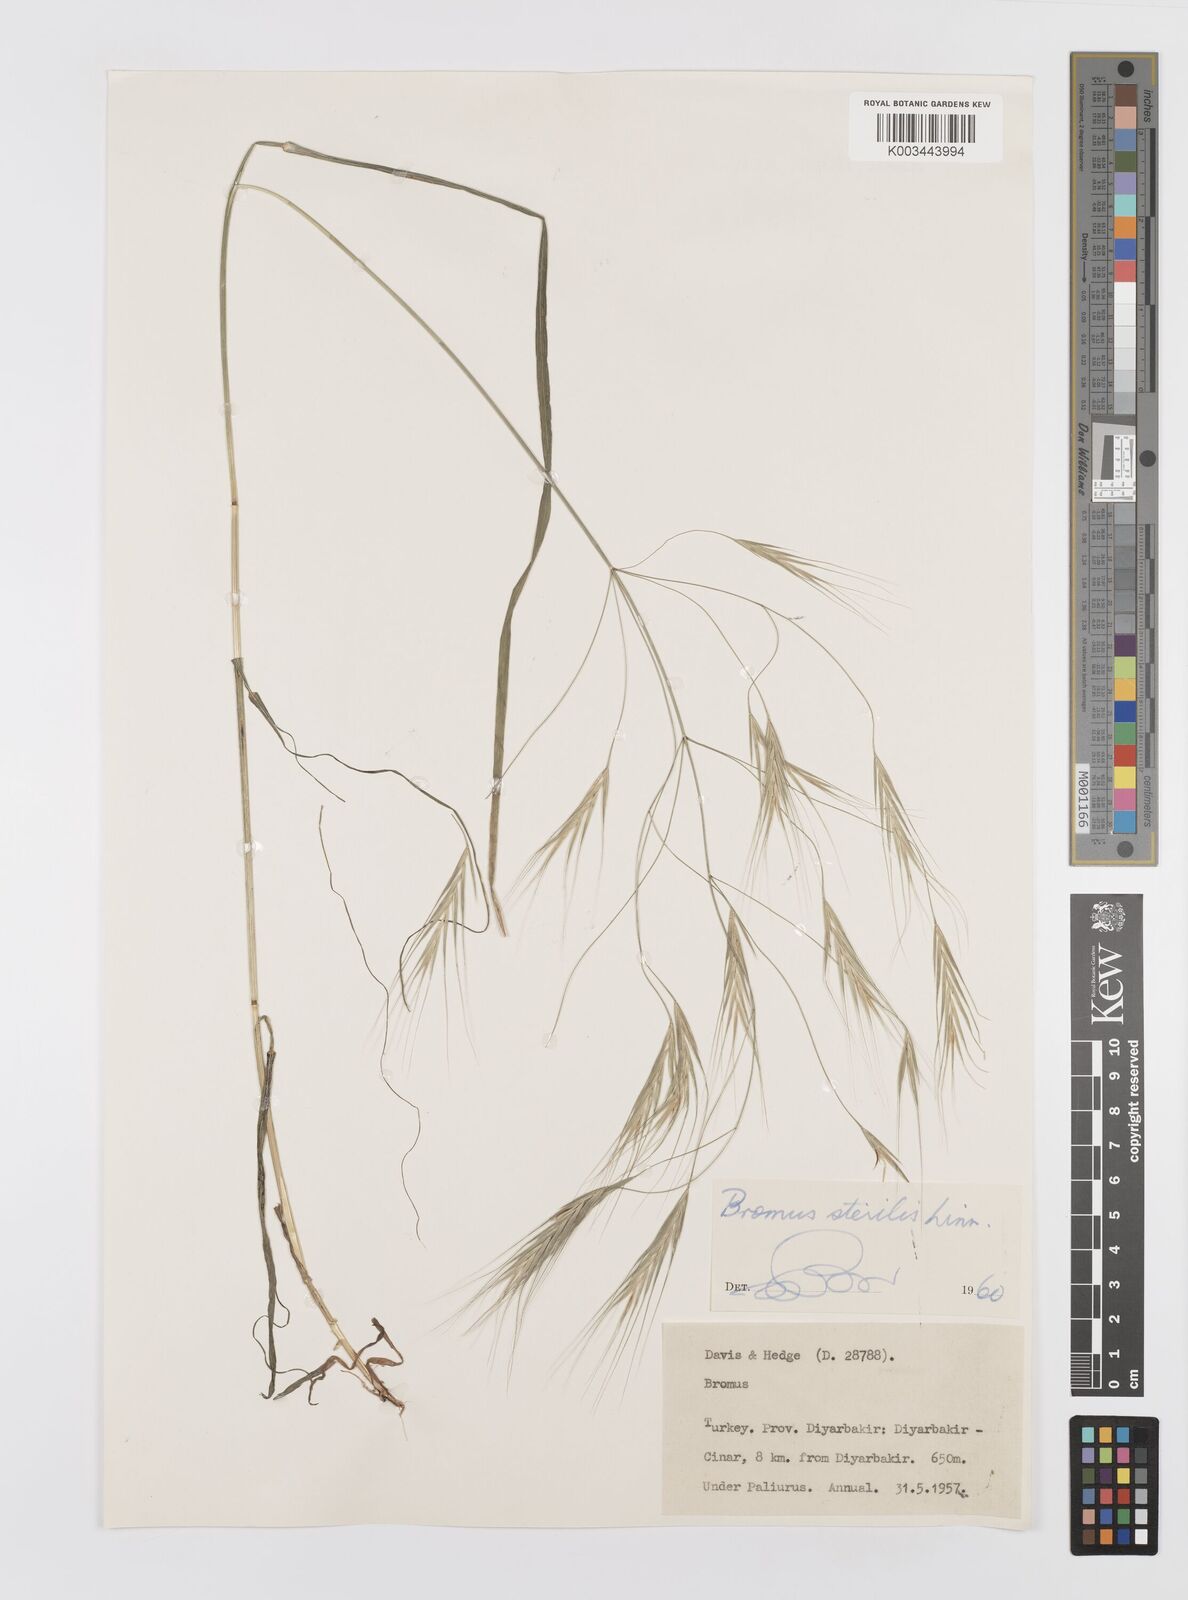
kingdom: Plantae
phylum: Tracheophyta
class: Liliopsida
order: Poales
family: Poaceae
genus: Bromus
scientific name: Bromus sterilis
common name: Poverty brome
